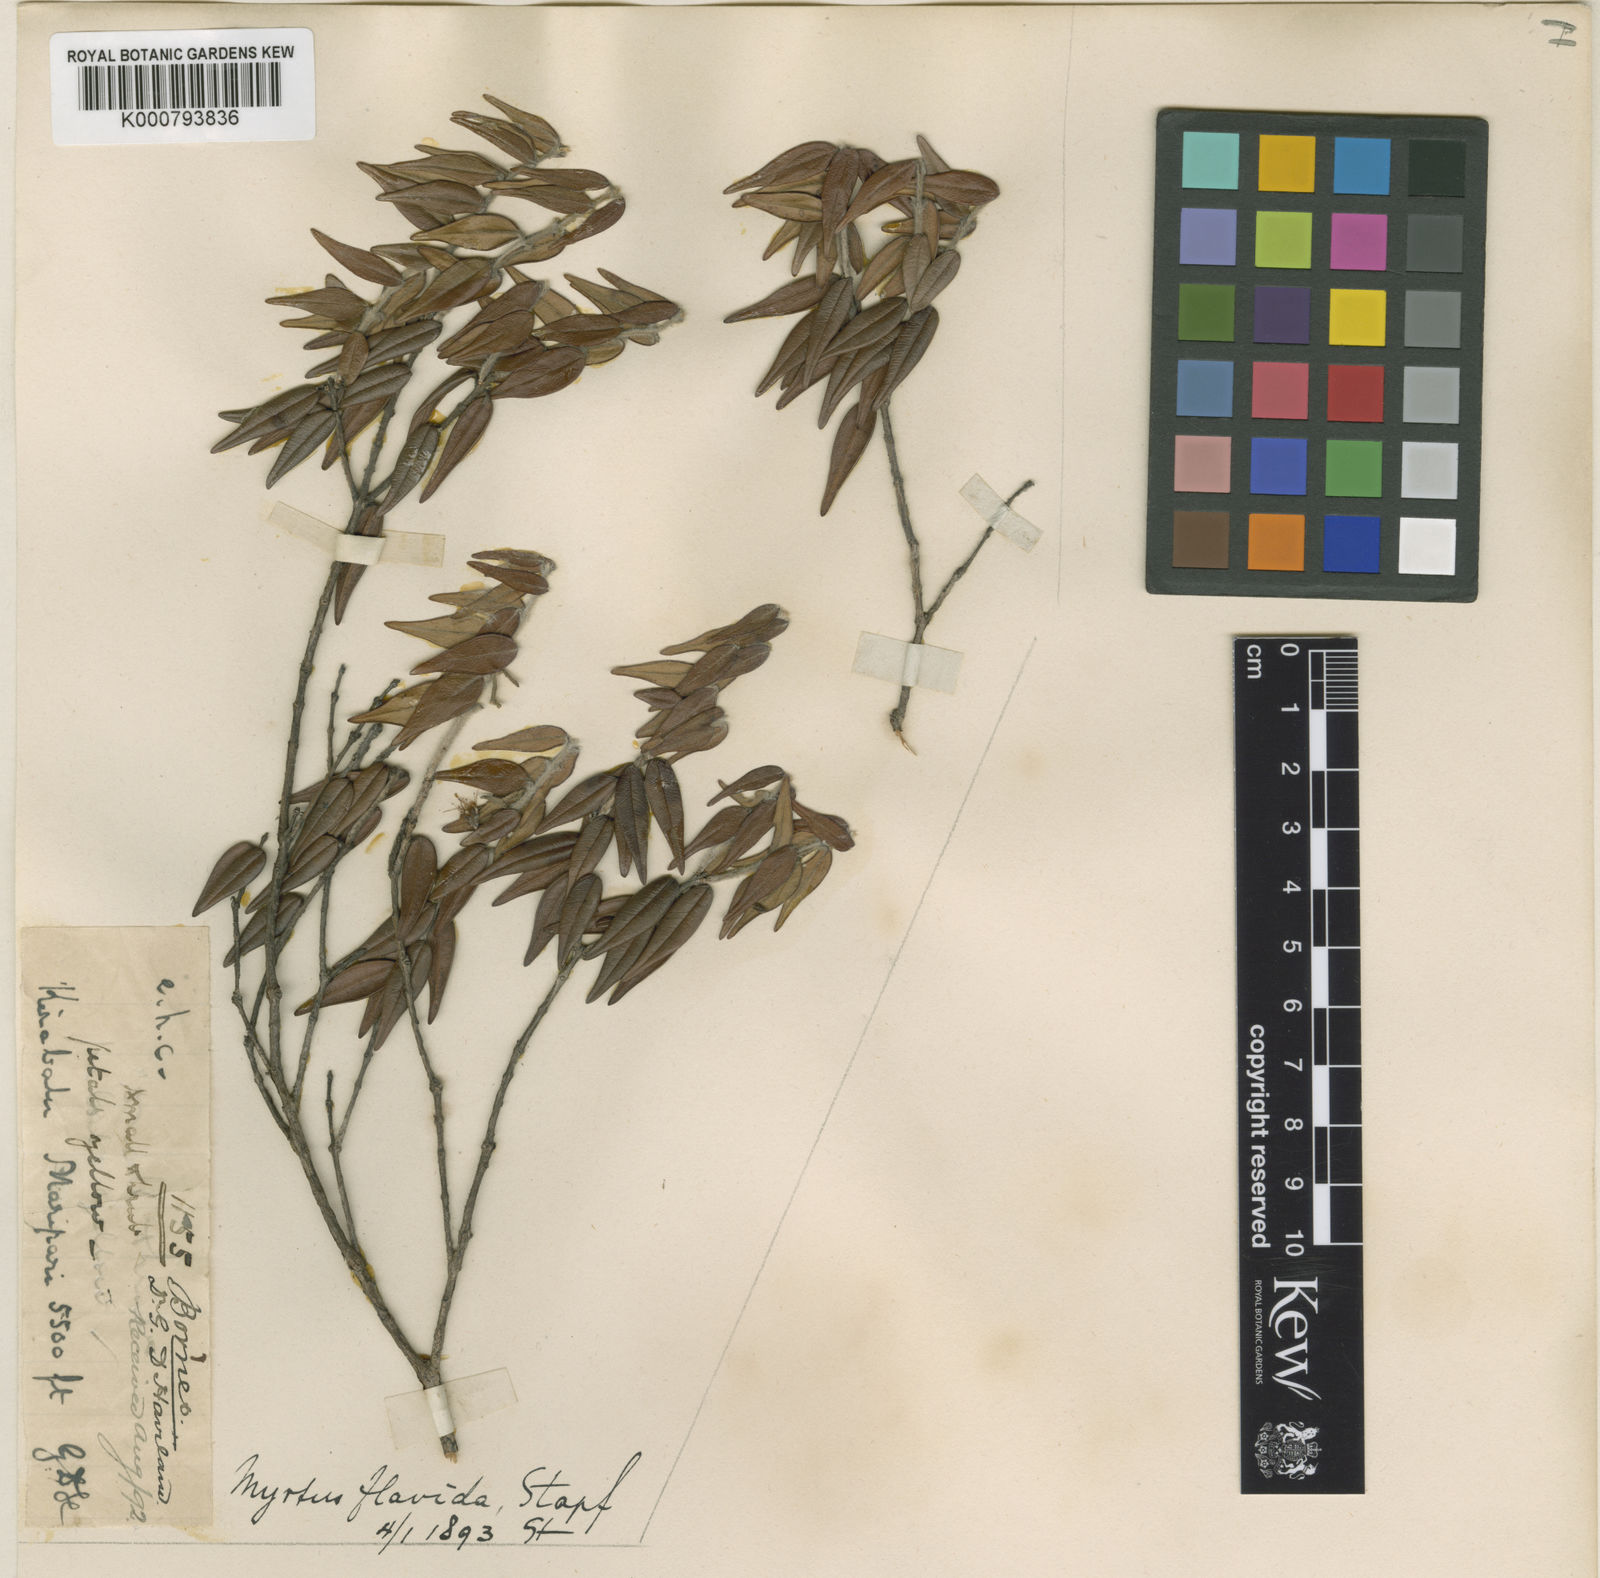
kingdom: Plantae
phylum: Tracheophyta
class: Magnoliopsida
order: Myrtales
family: Myrtaceae
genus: Xanthomyrtus
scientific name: Xanthomyrtus flavida
